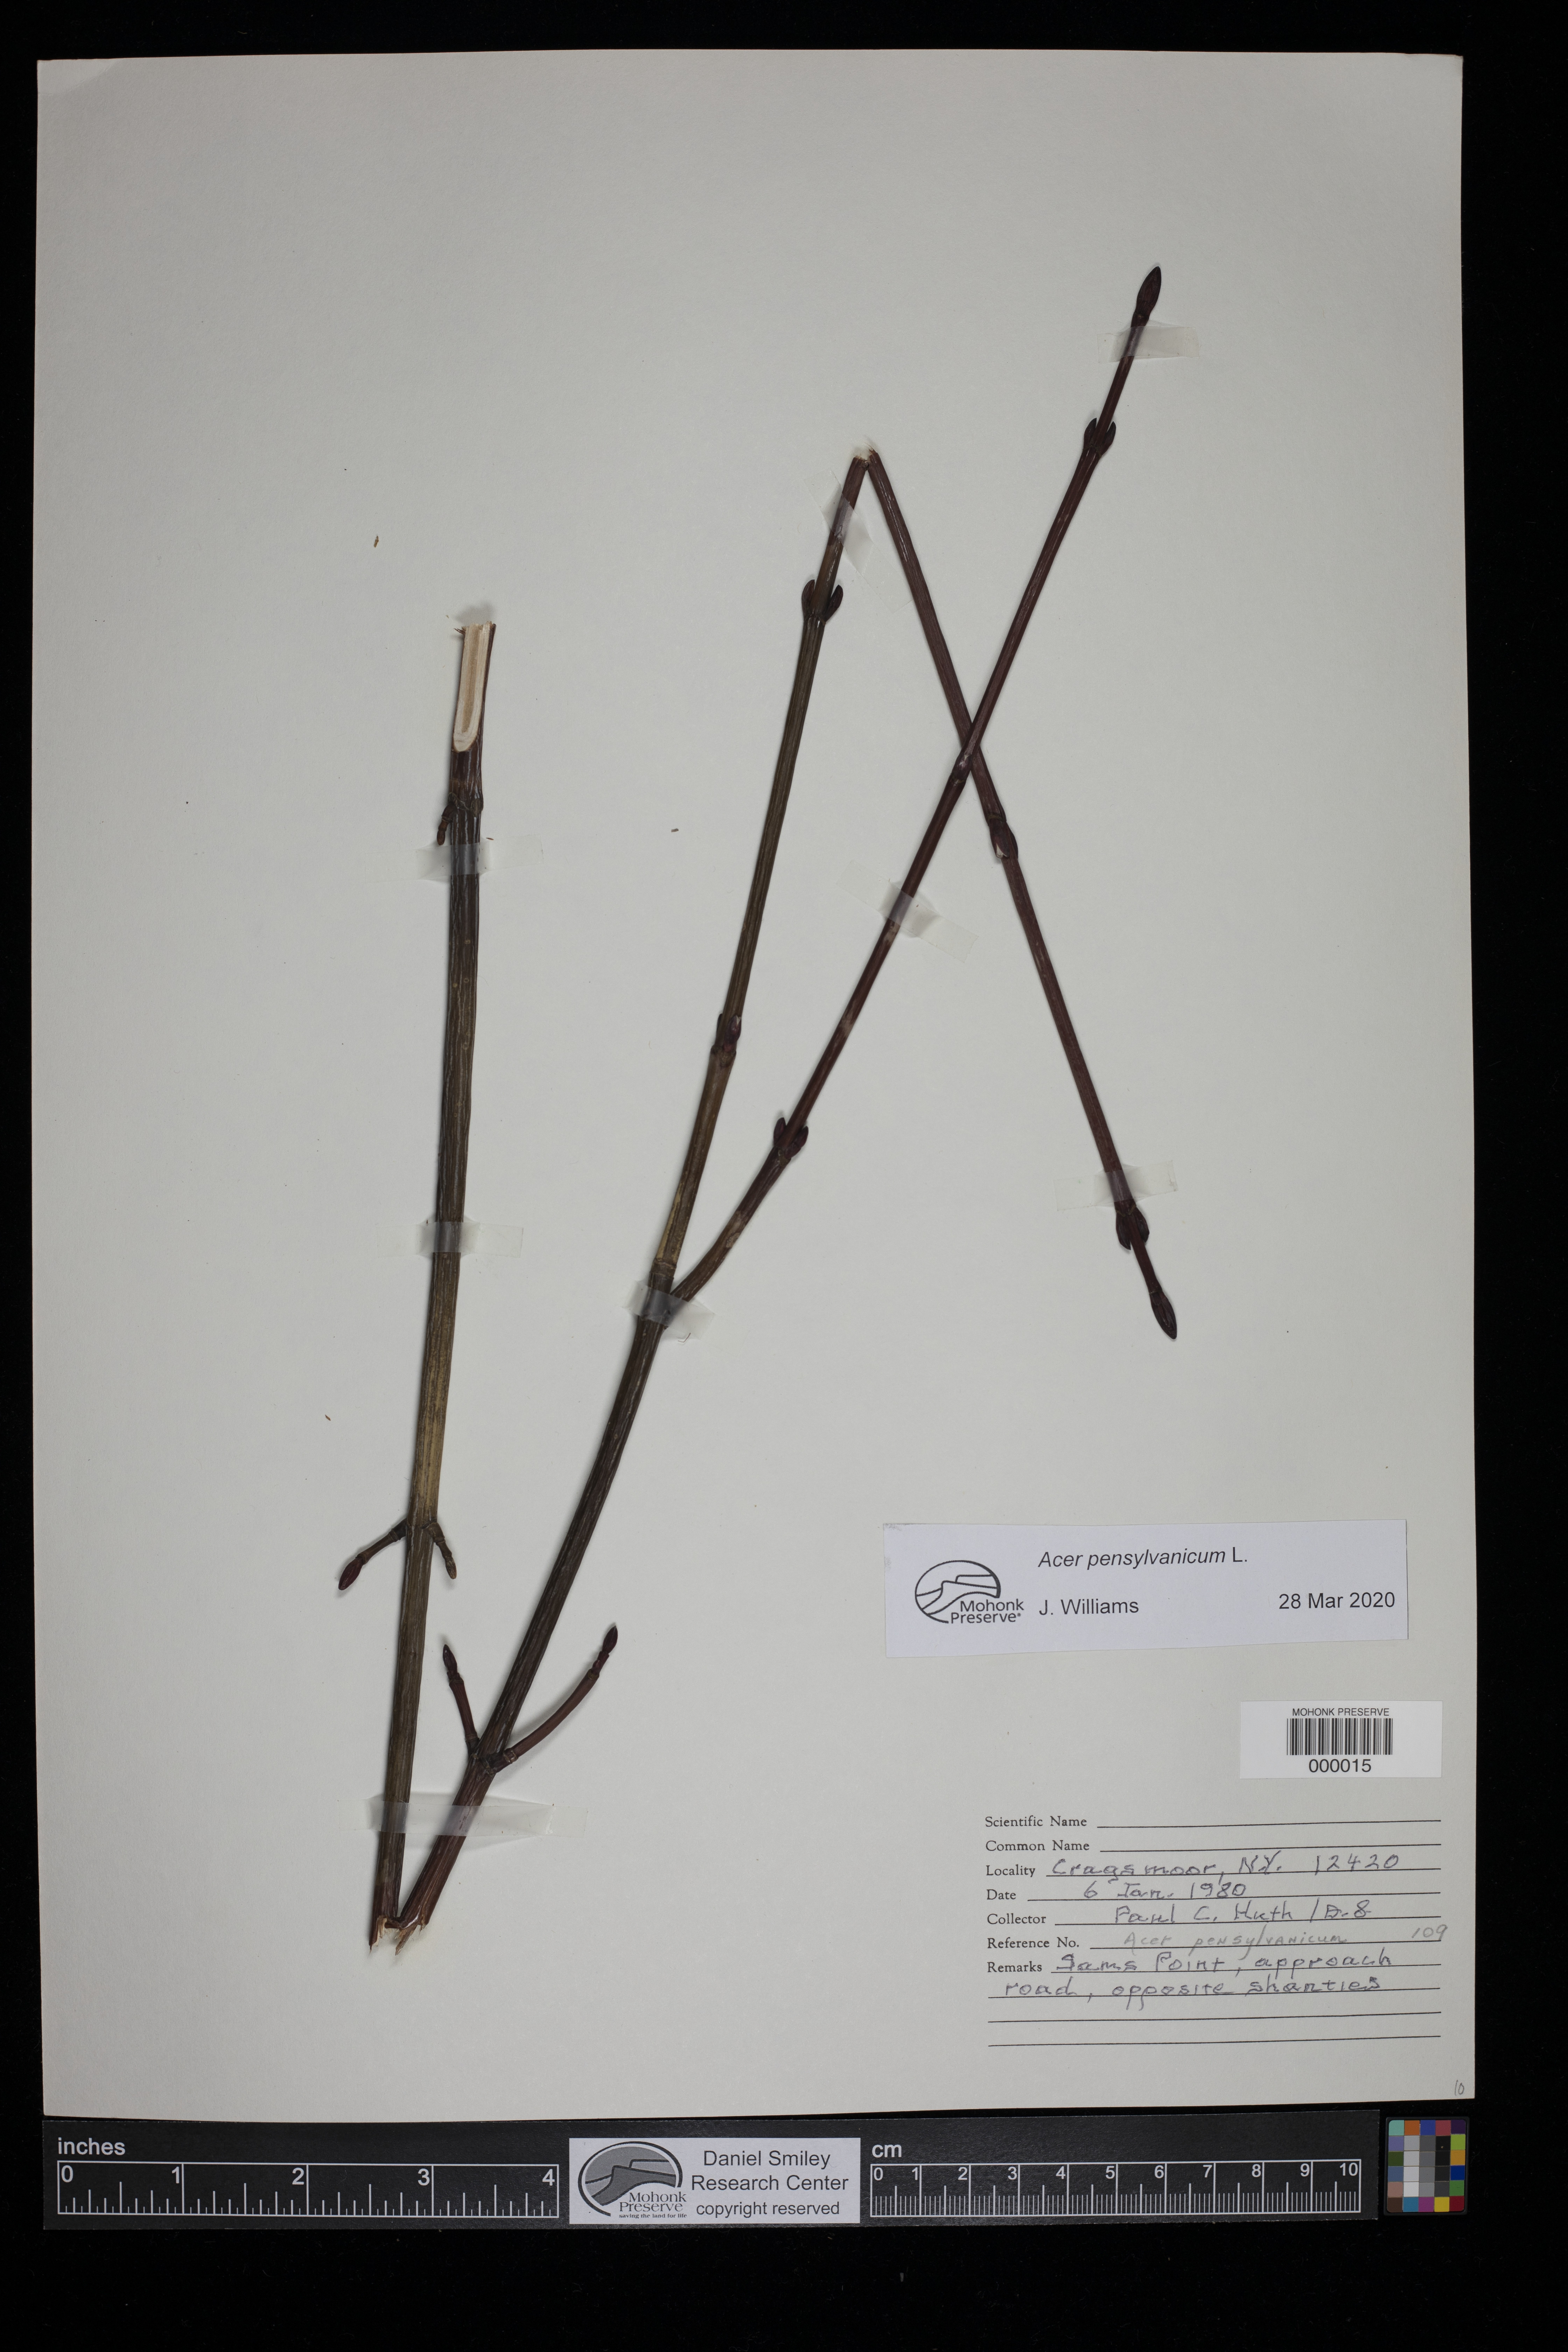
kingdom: Plantae
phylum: Tracheophyta
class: Magnoliopsida
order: Sapindales
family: Sapindaceae
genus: Acer
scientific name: Acer pensylvanicum
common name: Moosewood
